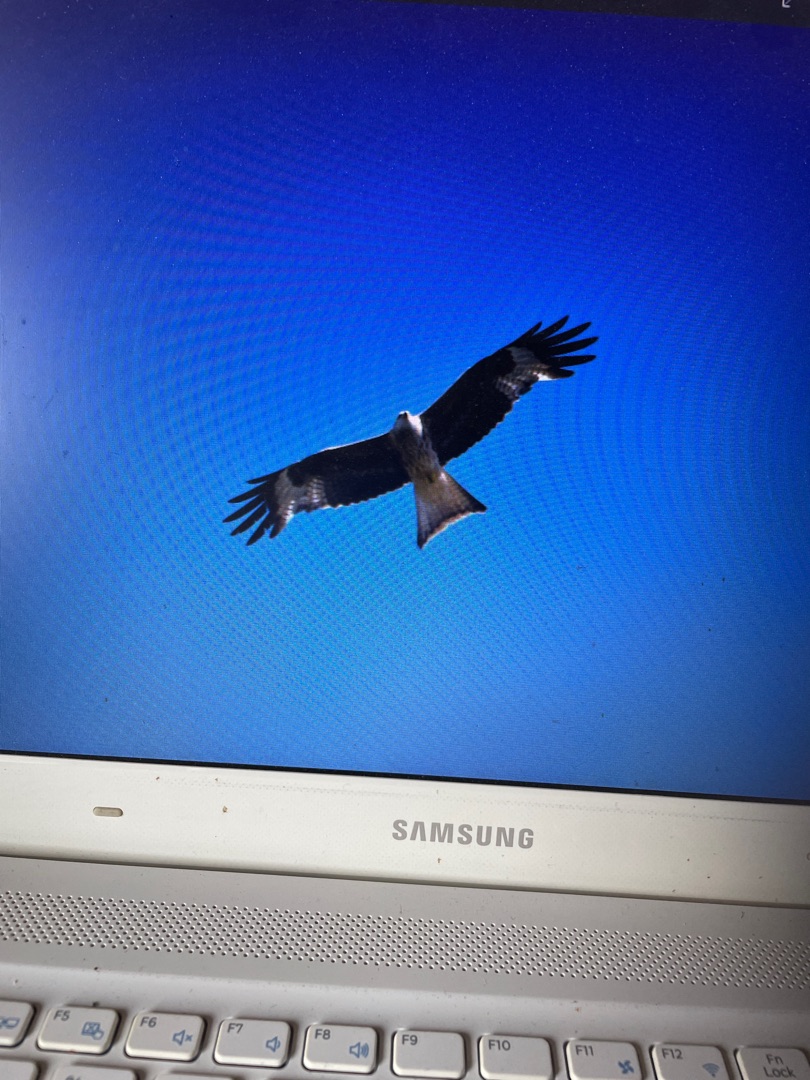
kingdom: Animalia
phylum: Chordata
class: Aves
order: Accipitriformes
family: Accipitridae
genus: Milvus
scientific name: Milvus milvus
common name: Rød glente
